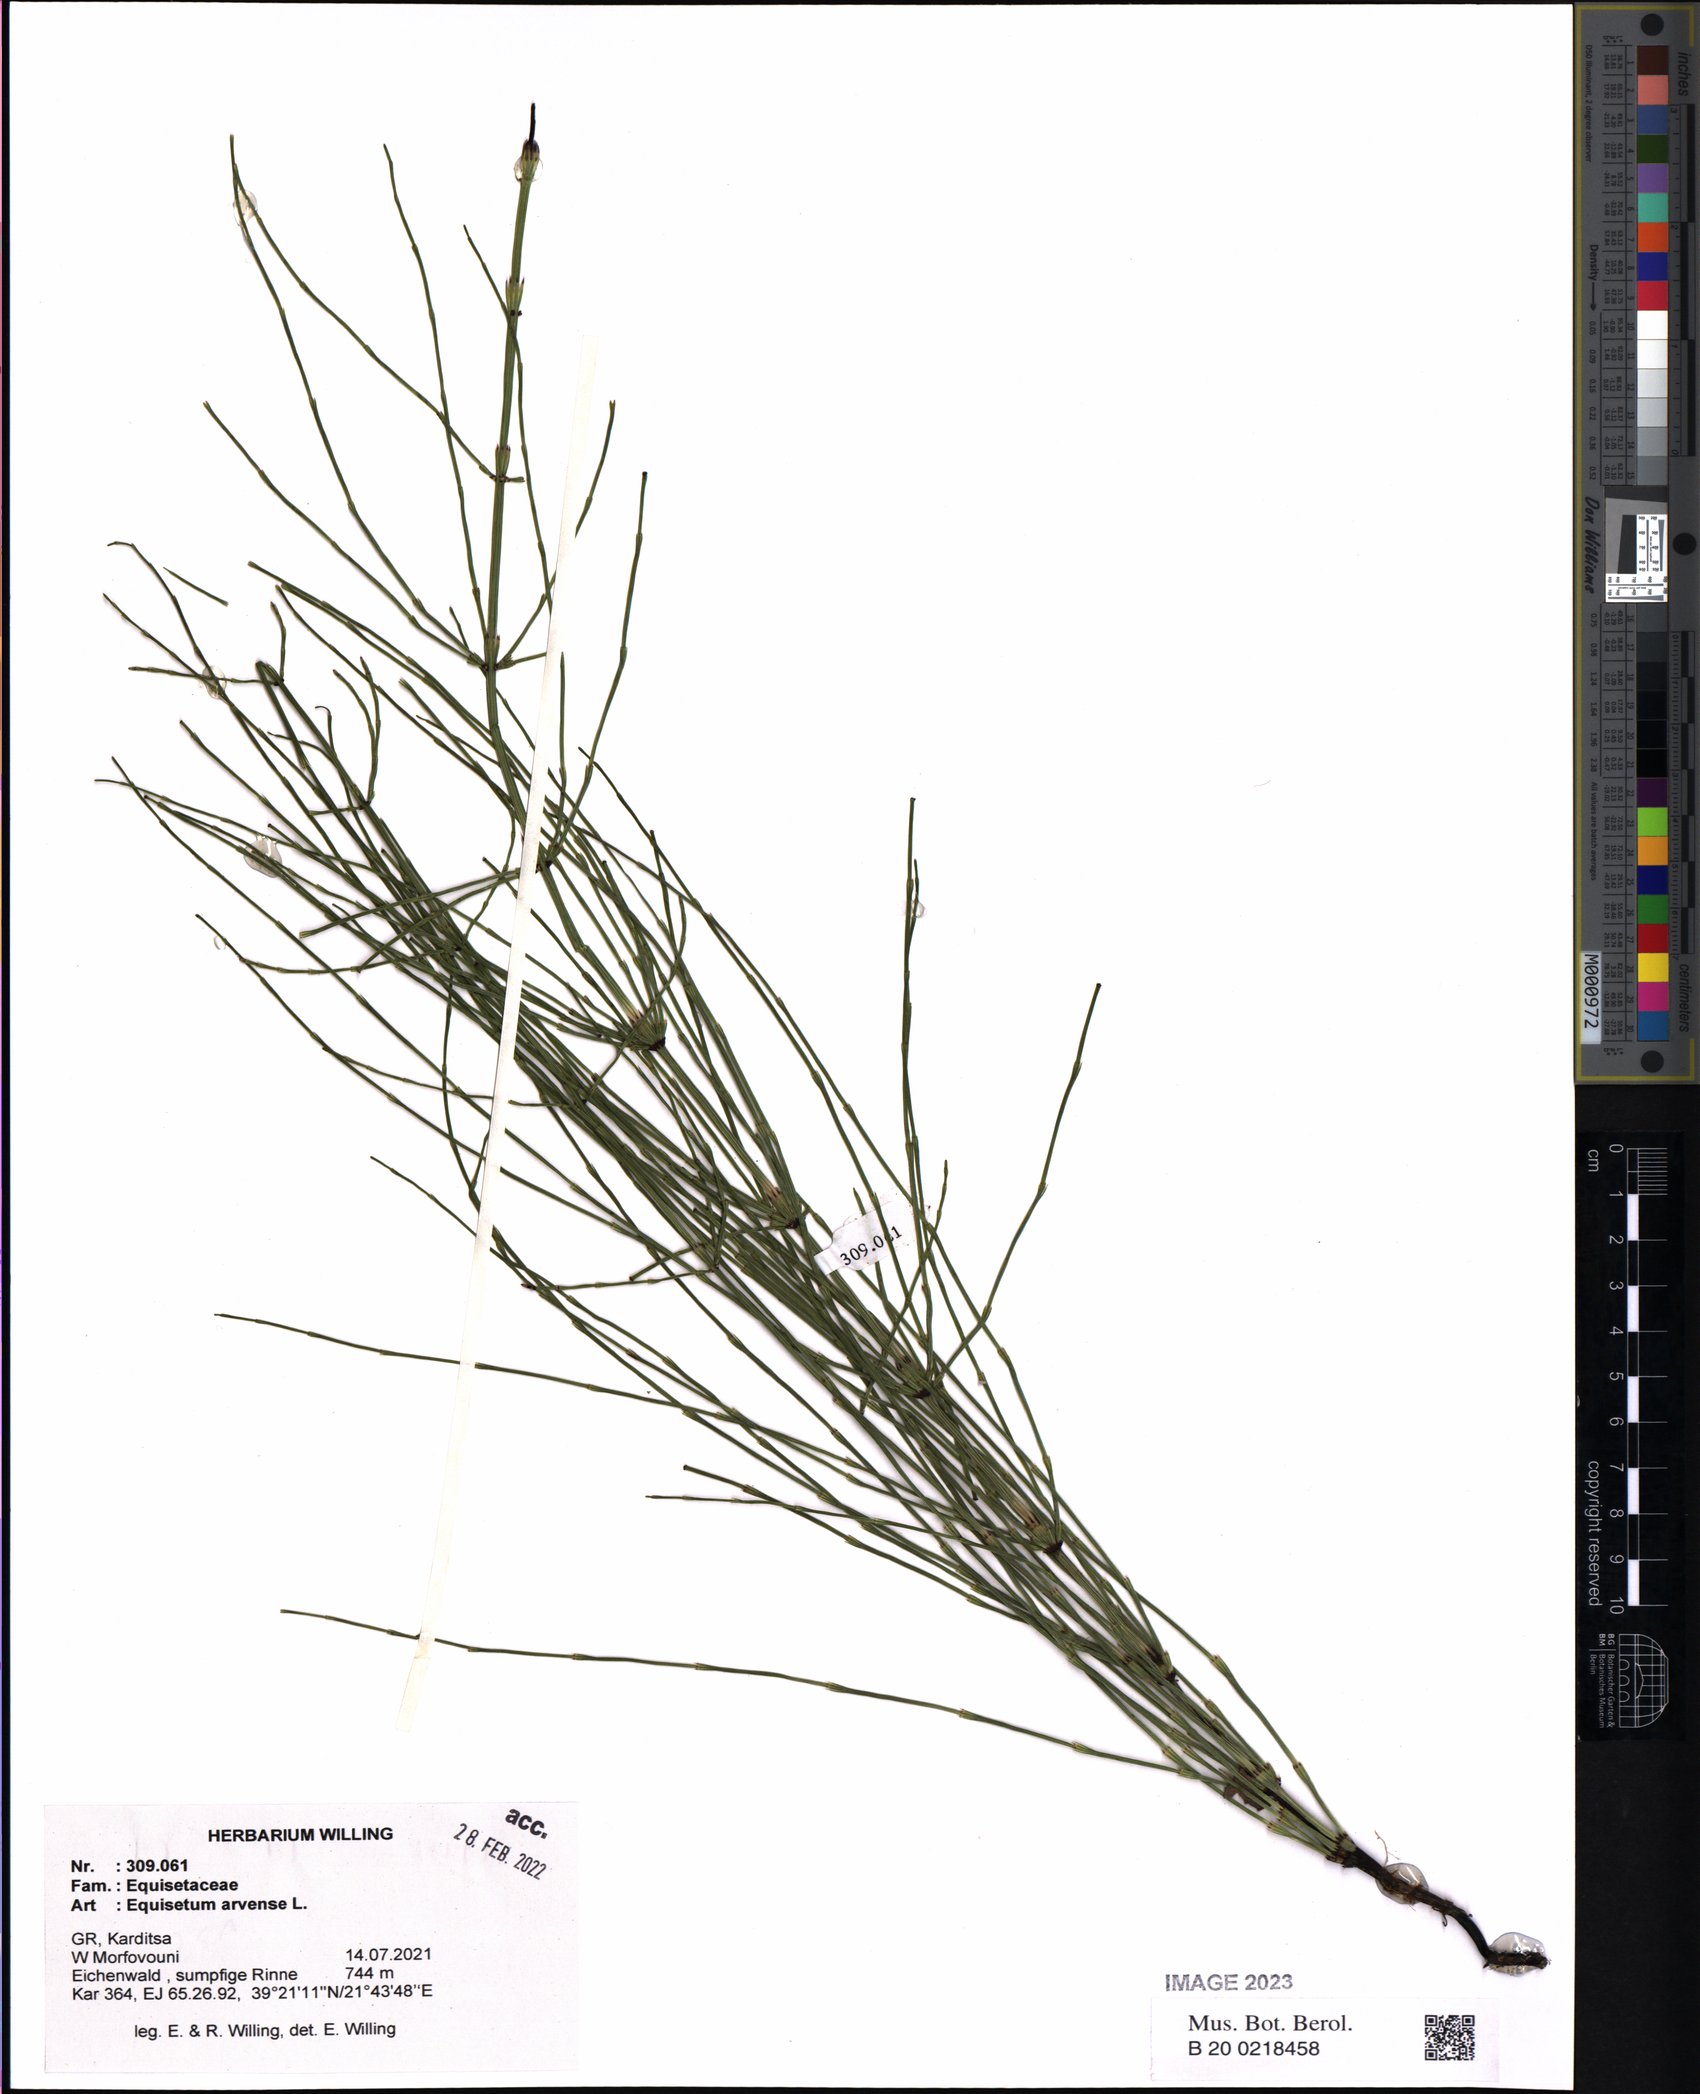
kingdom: Plantae
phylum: Tracheophyta
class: Polypodiopsida
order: Equisetales
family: Equisetaceae
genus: Equisetum
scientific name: Equisetum arvense
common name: Field horsetail
